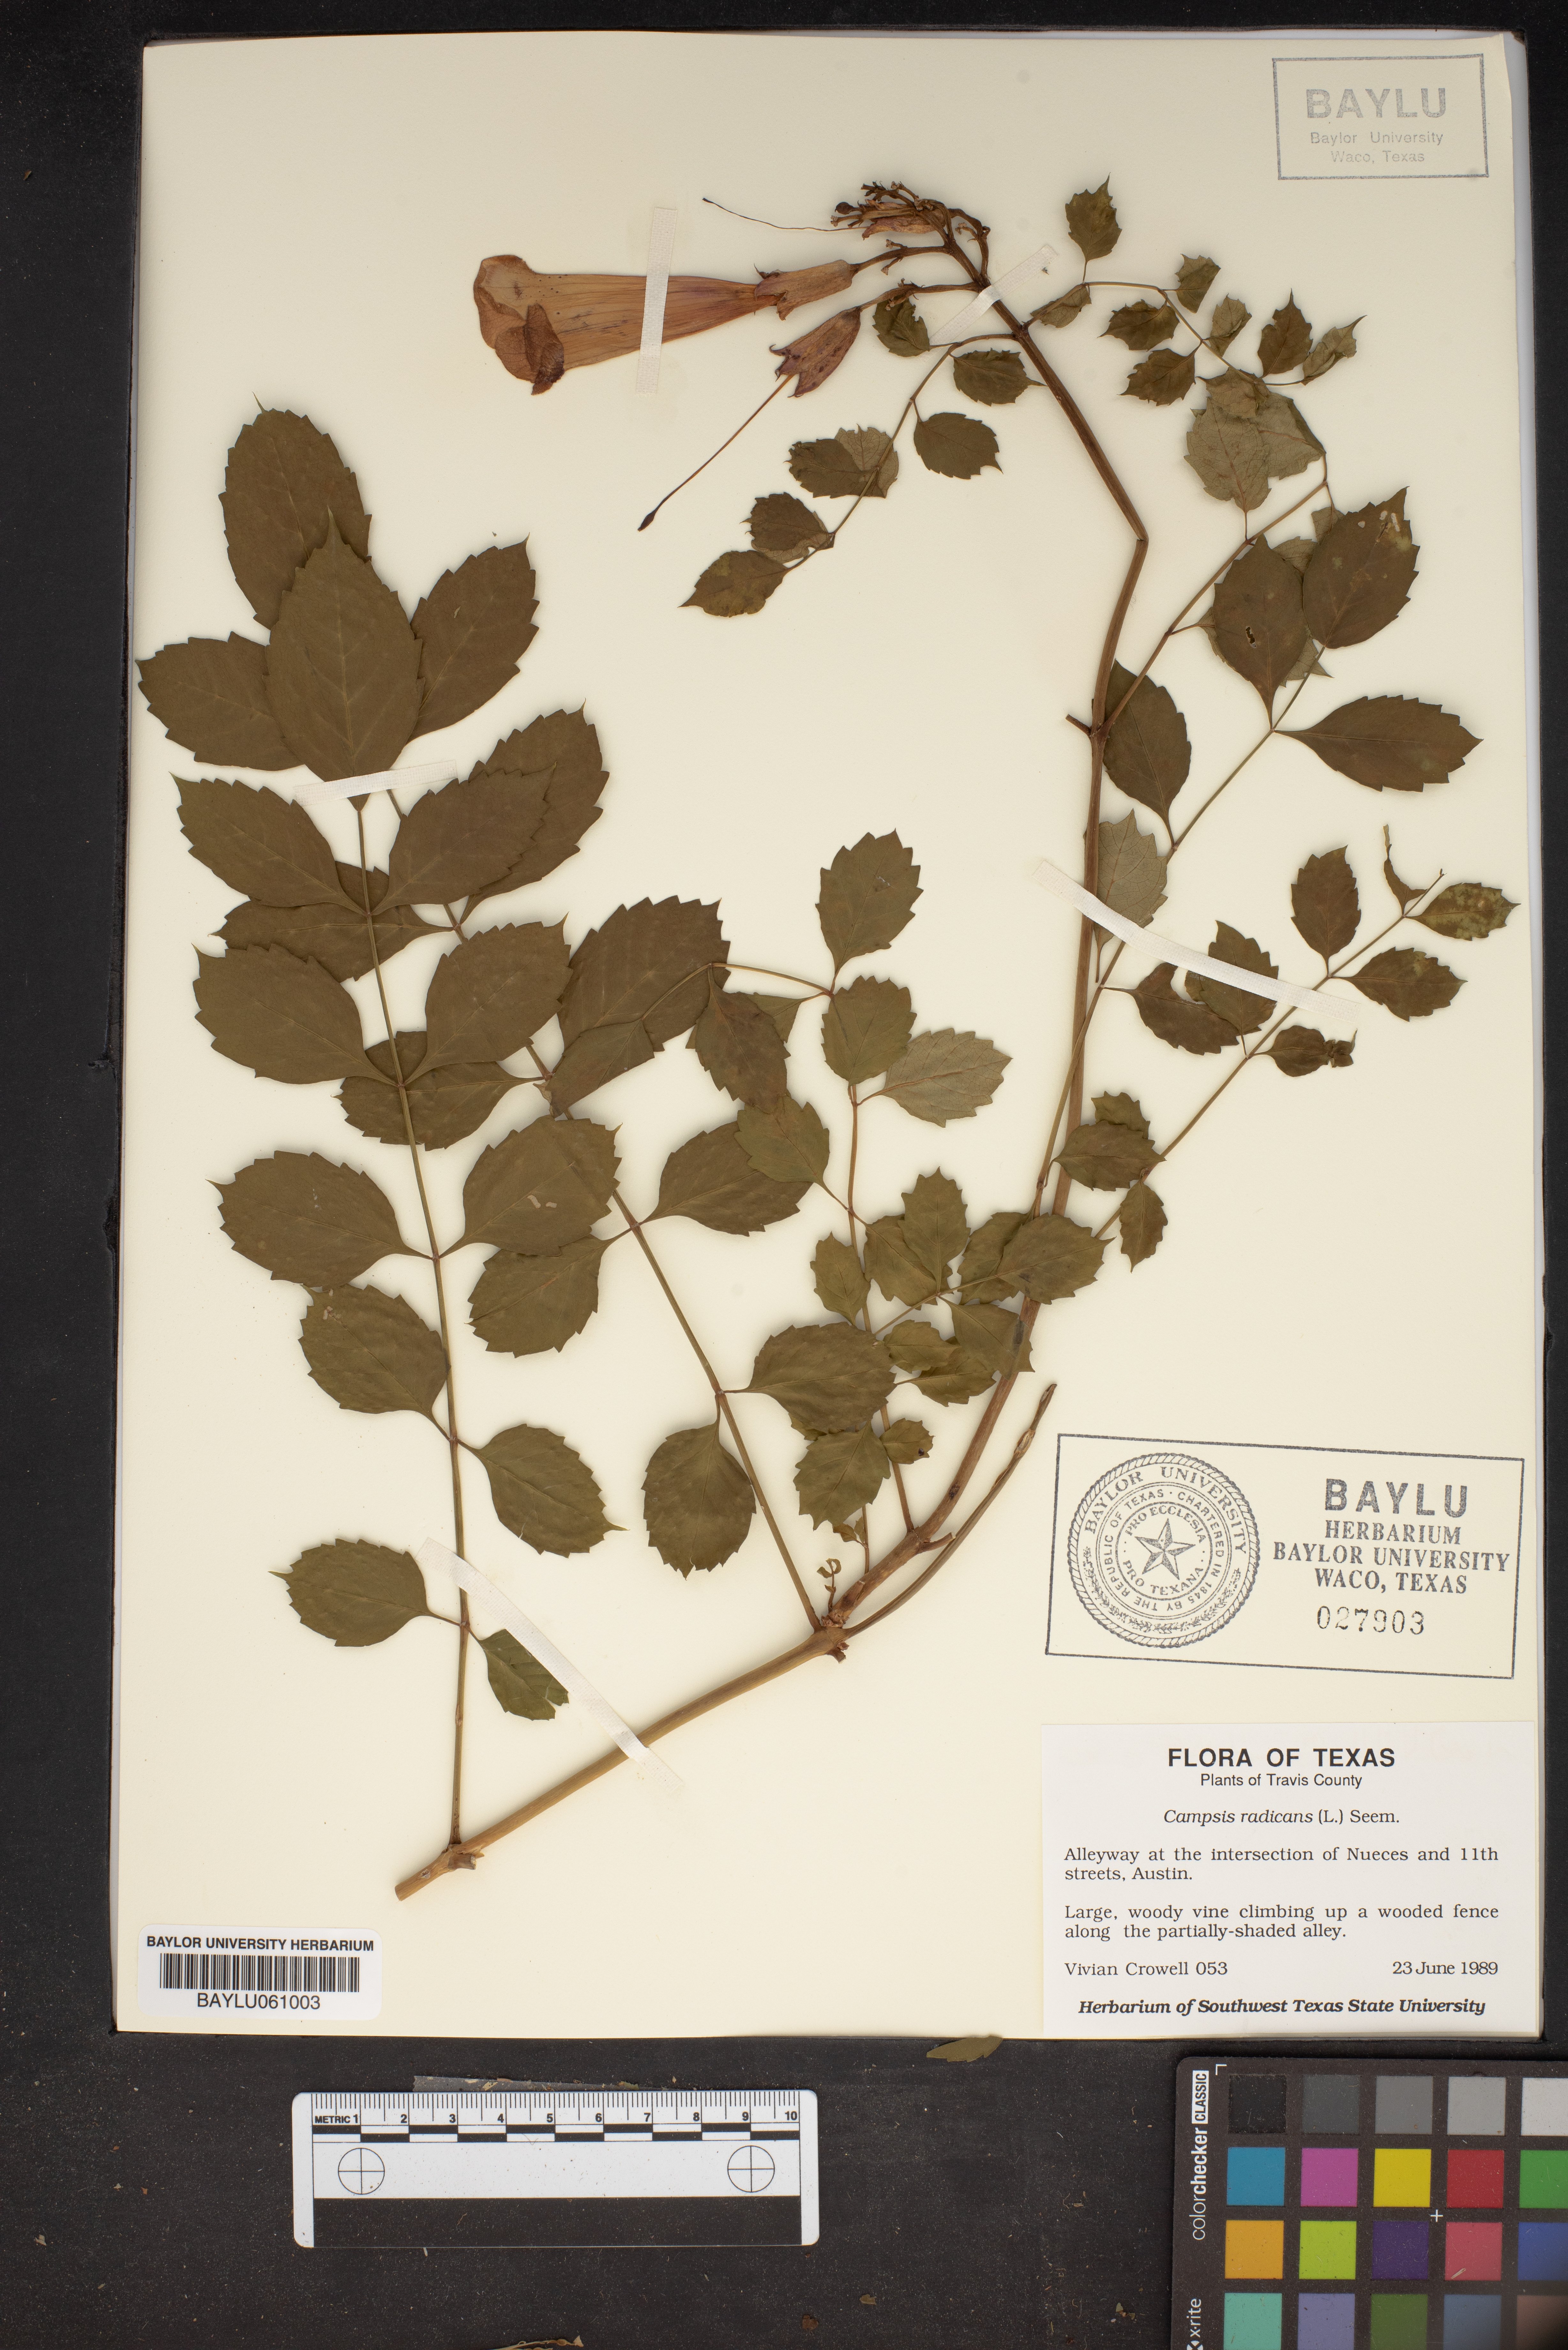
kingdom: Plantae
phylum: Tracheophyta
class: Magnoliopsida
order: Lamiales
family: Bignoniaceae
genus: Campsis
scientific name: Campsis radicans
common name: Trumpet-creeper
